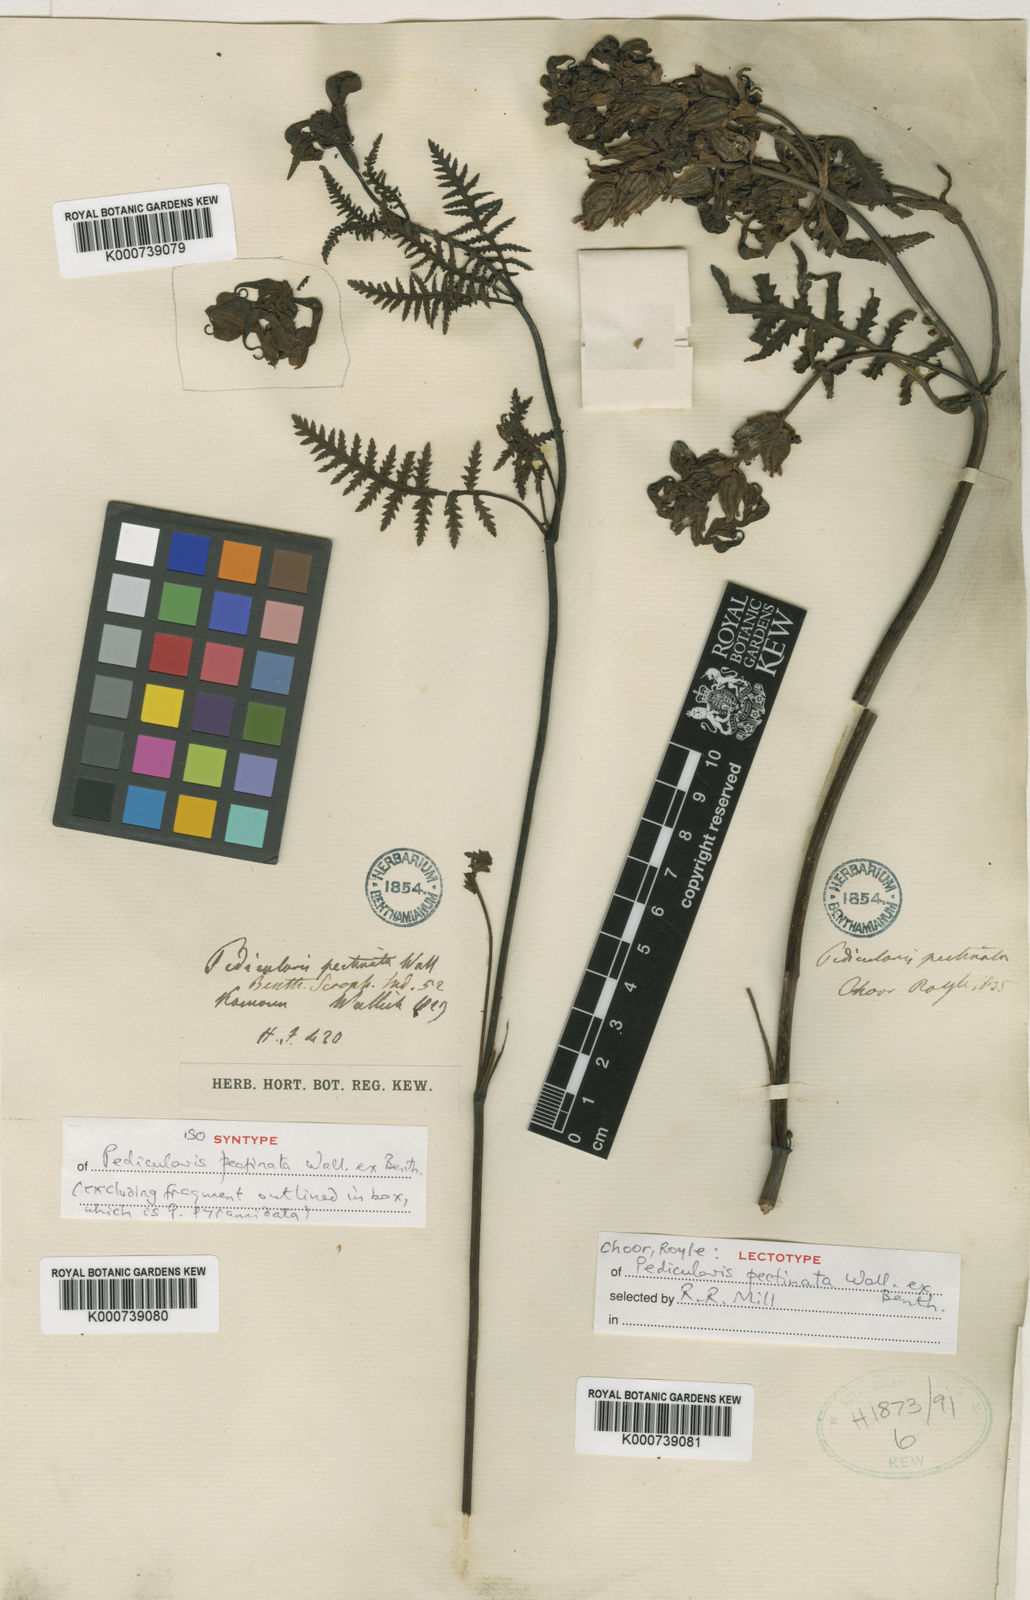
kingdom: Plantae
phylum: Tracheophyta
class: Magnoliopsida
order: Lamiales
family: Orobanchaceae
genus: Pedicularis
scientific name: Pedicularis pectinata
